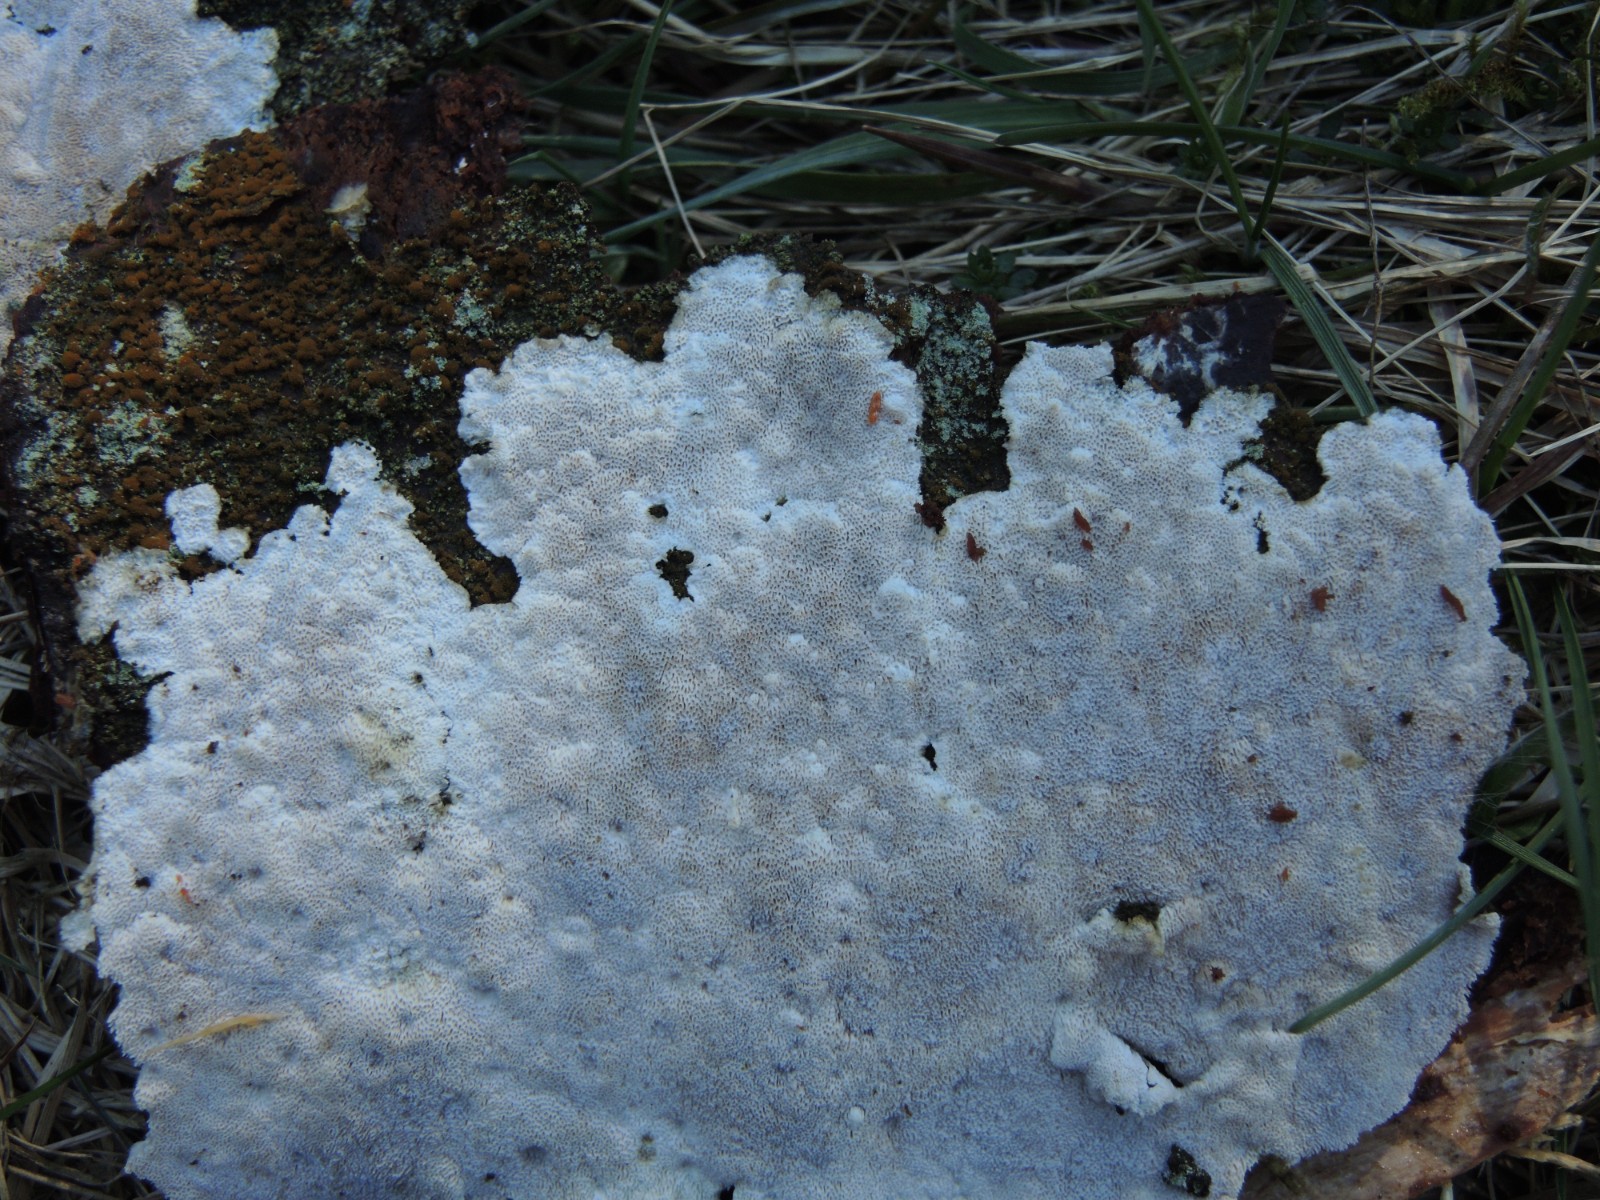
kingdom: Fungi
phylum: Basidiomycota
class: Agaricomycetes
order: Polyporales
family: Gelatoporiaceae
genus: Cinereomyces
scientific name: Cinereomyces lindbladii
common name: almindelig gråporesvamp
